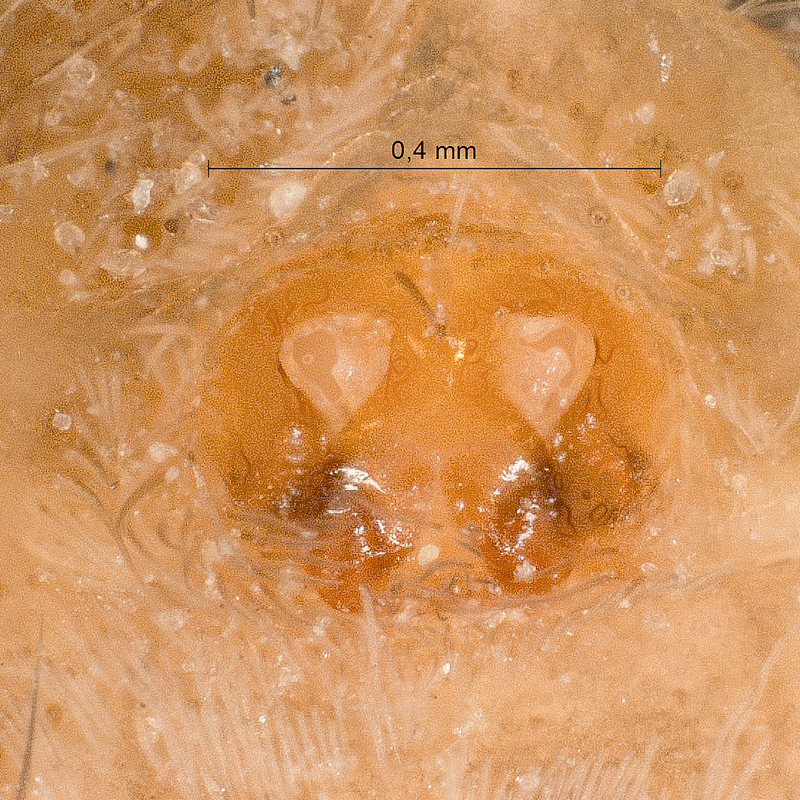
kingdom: Animalia
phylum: Arthropoda
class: Arachnida
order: Araneae
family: Lycosidae
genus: Xerolycosa
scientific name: Xerolycosa miniata
